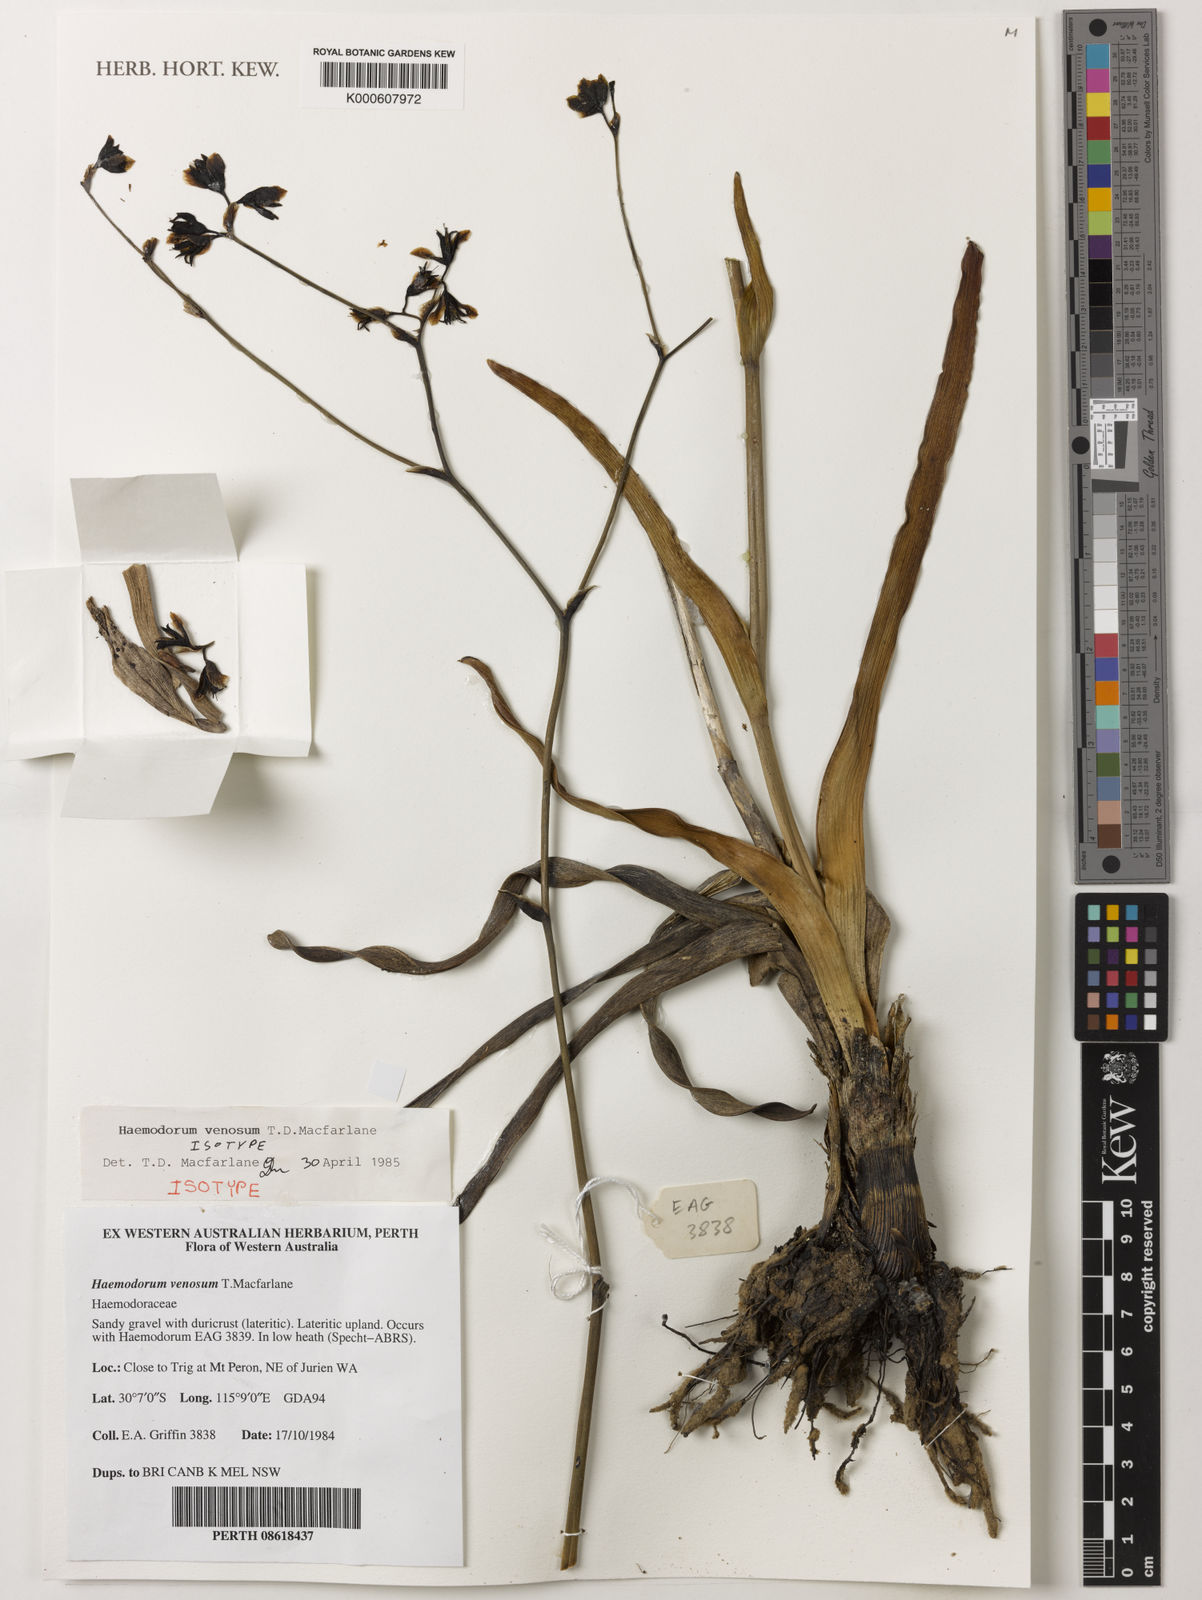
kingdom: Plantae
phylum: Tracheophyta
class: Liliopsida
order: Commelinales
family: Haemodoraceae
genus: Haemodorum
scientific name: Haemodorum venosum
